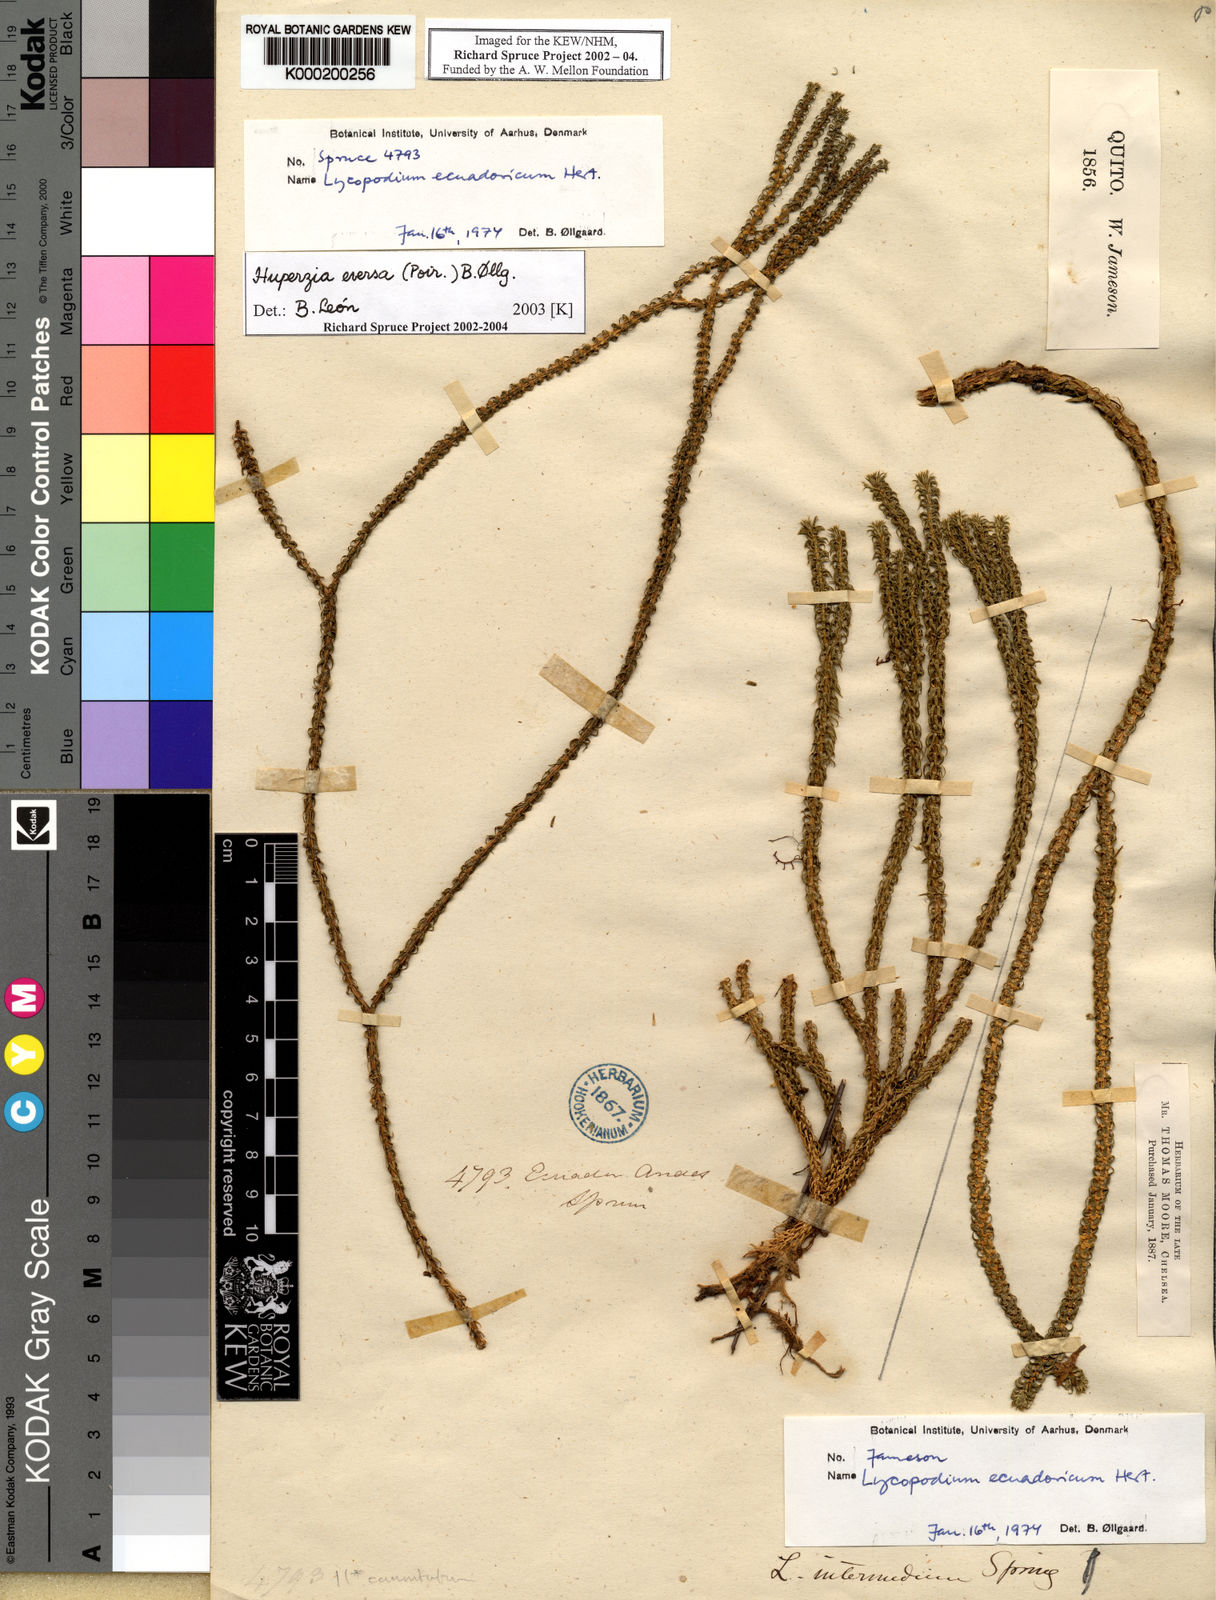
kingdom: Plantae
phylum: Tracheophyta
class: Lycopodiopsida
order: Lycopodiales
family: Lycopodiaceae
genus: Huperzia
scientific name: Huperzia
